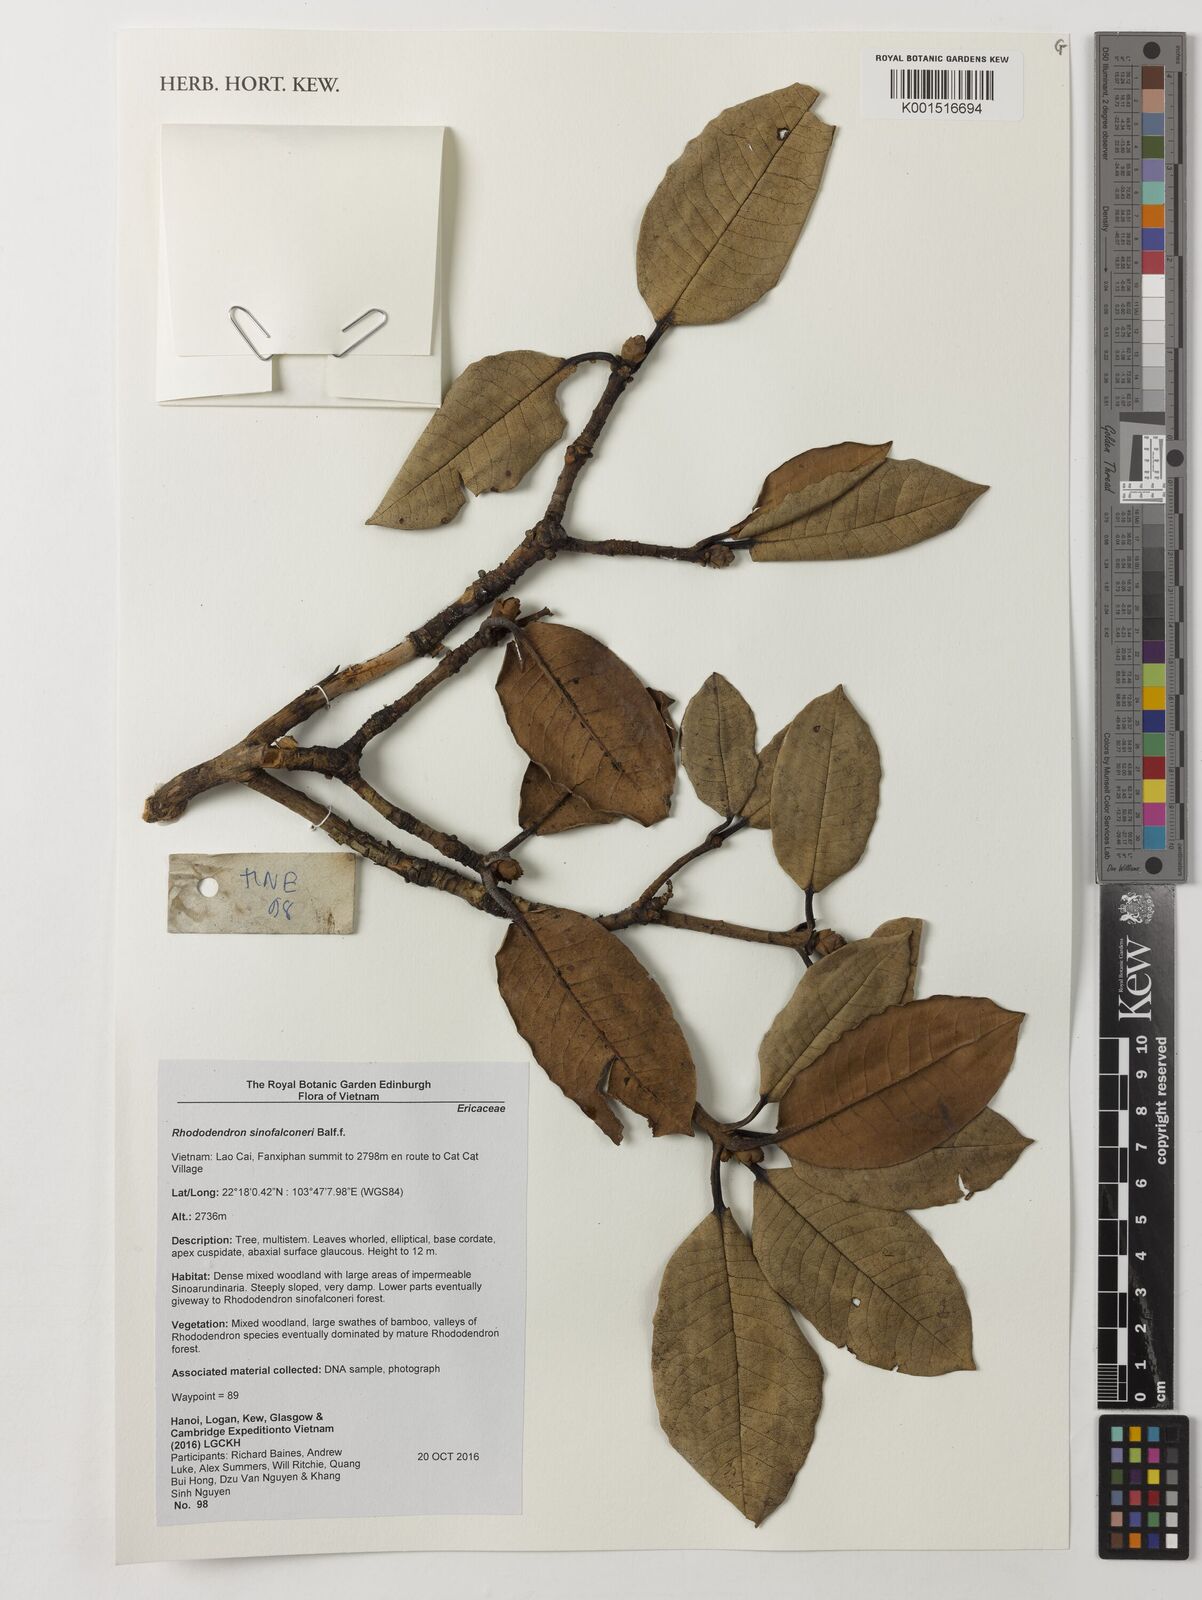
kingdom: Plantae
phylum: Tracheophyta
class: Magnoliopsida
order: Ericales
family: Ericaceae
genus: Rhododendron
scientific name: Rhododendron sinofalconeri
